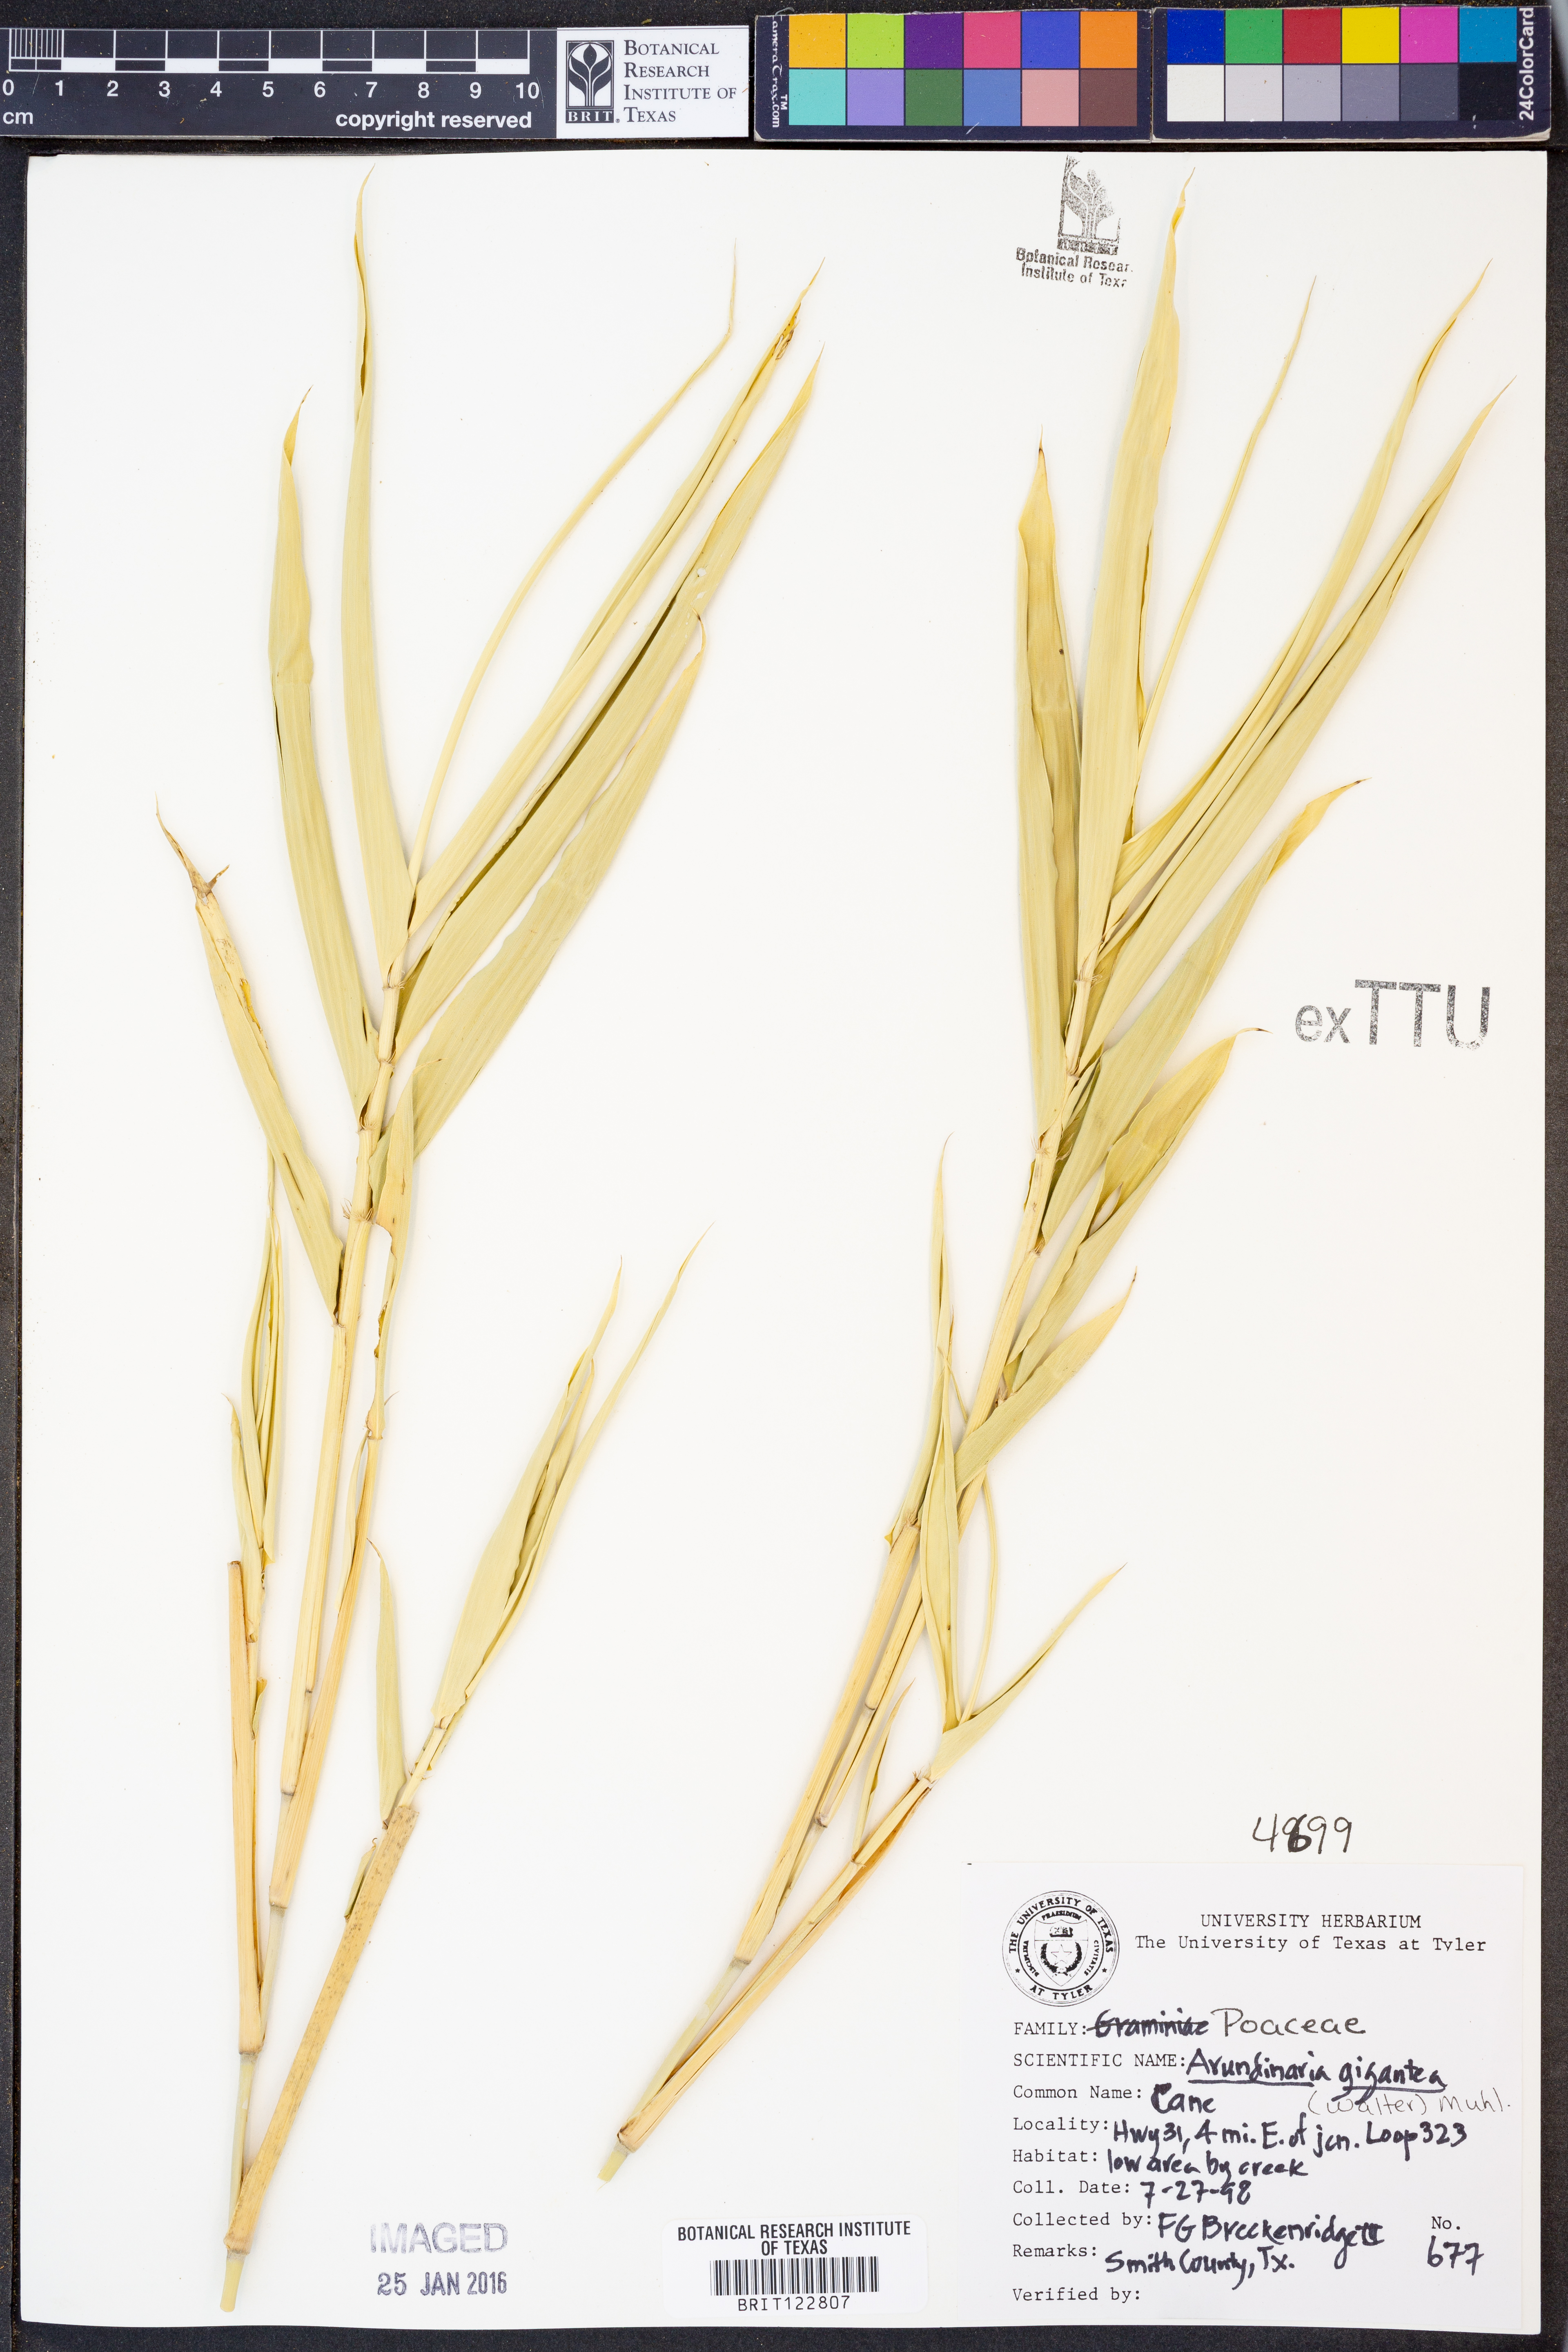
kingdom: Plantae
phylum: Tracheophyta
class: Liliopsida
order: Poales
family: Poaceae
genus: Arundinaria
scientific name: Arundinaria gigantea
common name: Giant cane
